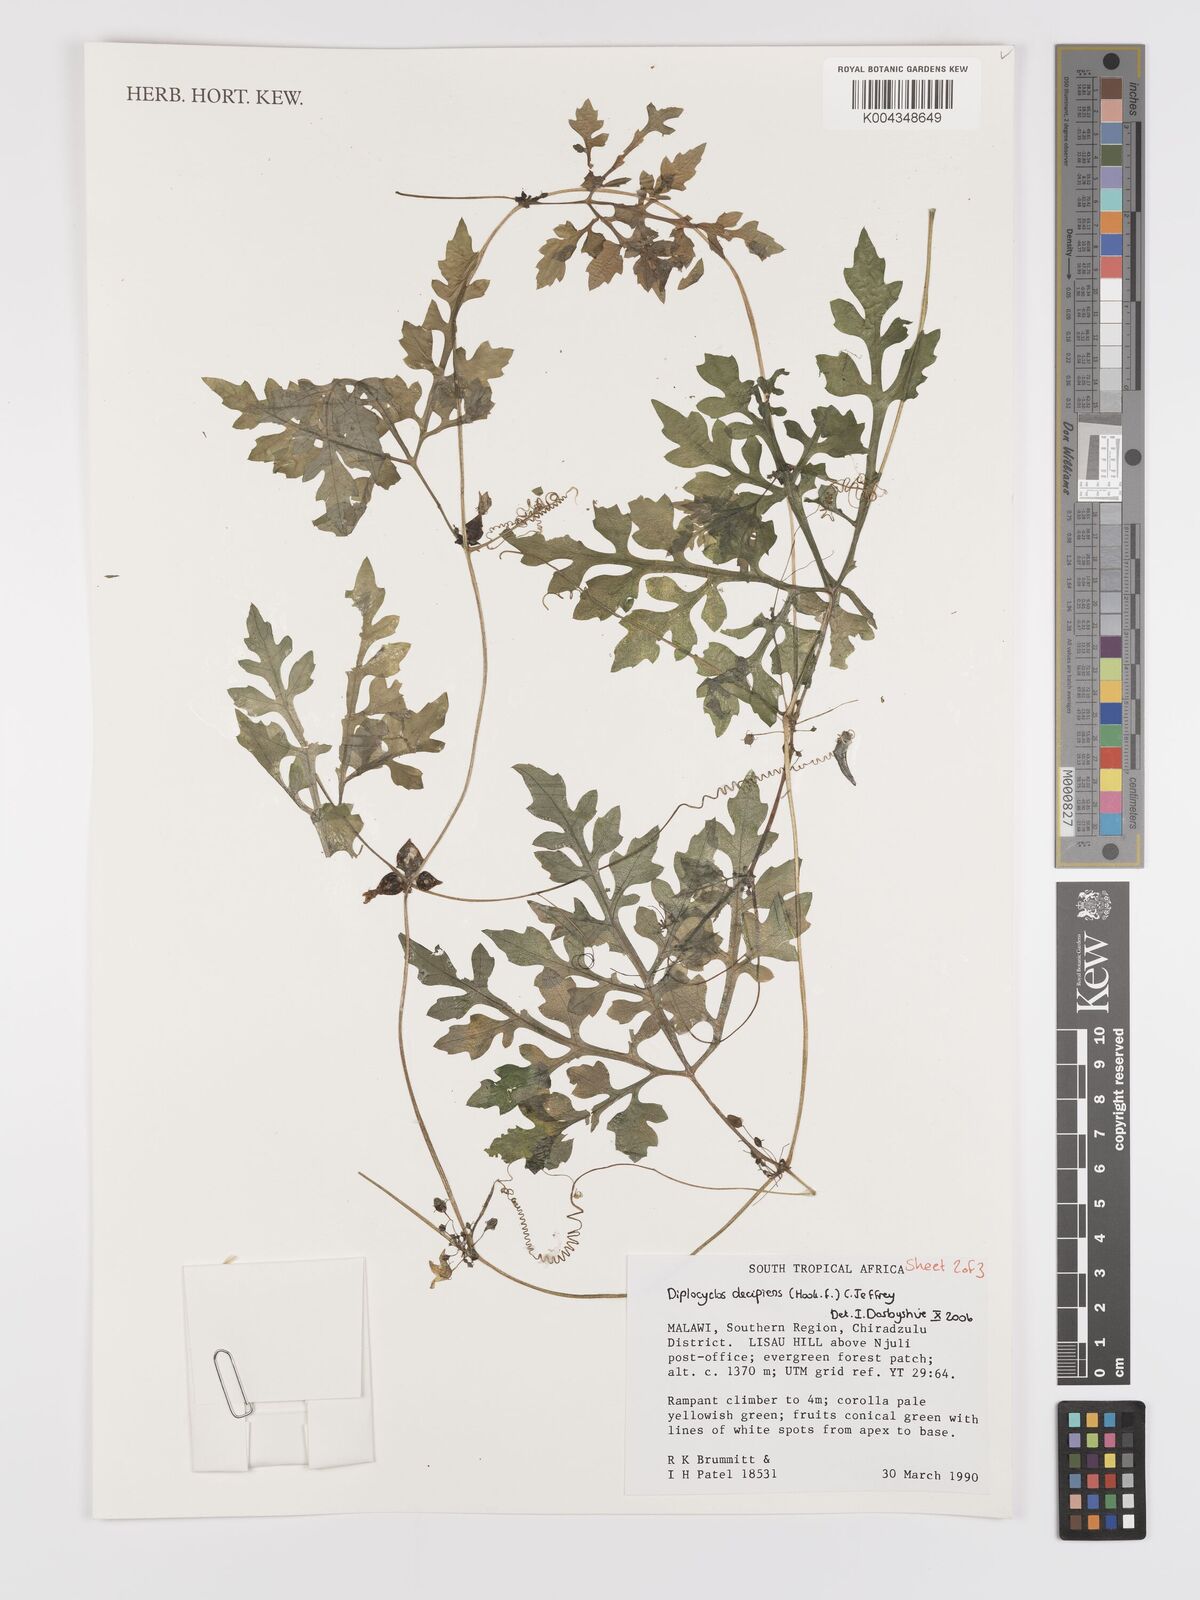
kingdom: Plantae
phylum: Tracheophyta
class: Magnoliopsida
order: Cucurbitales
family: Cucurbitaceae
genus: Diplocyclos
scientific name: Diplocyclos decipiens
